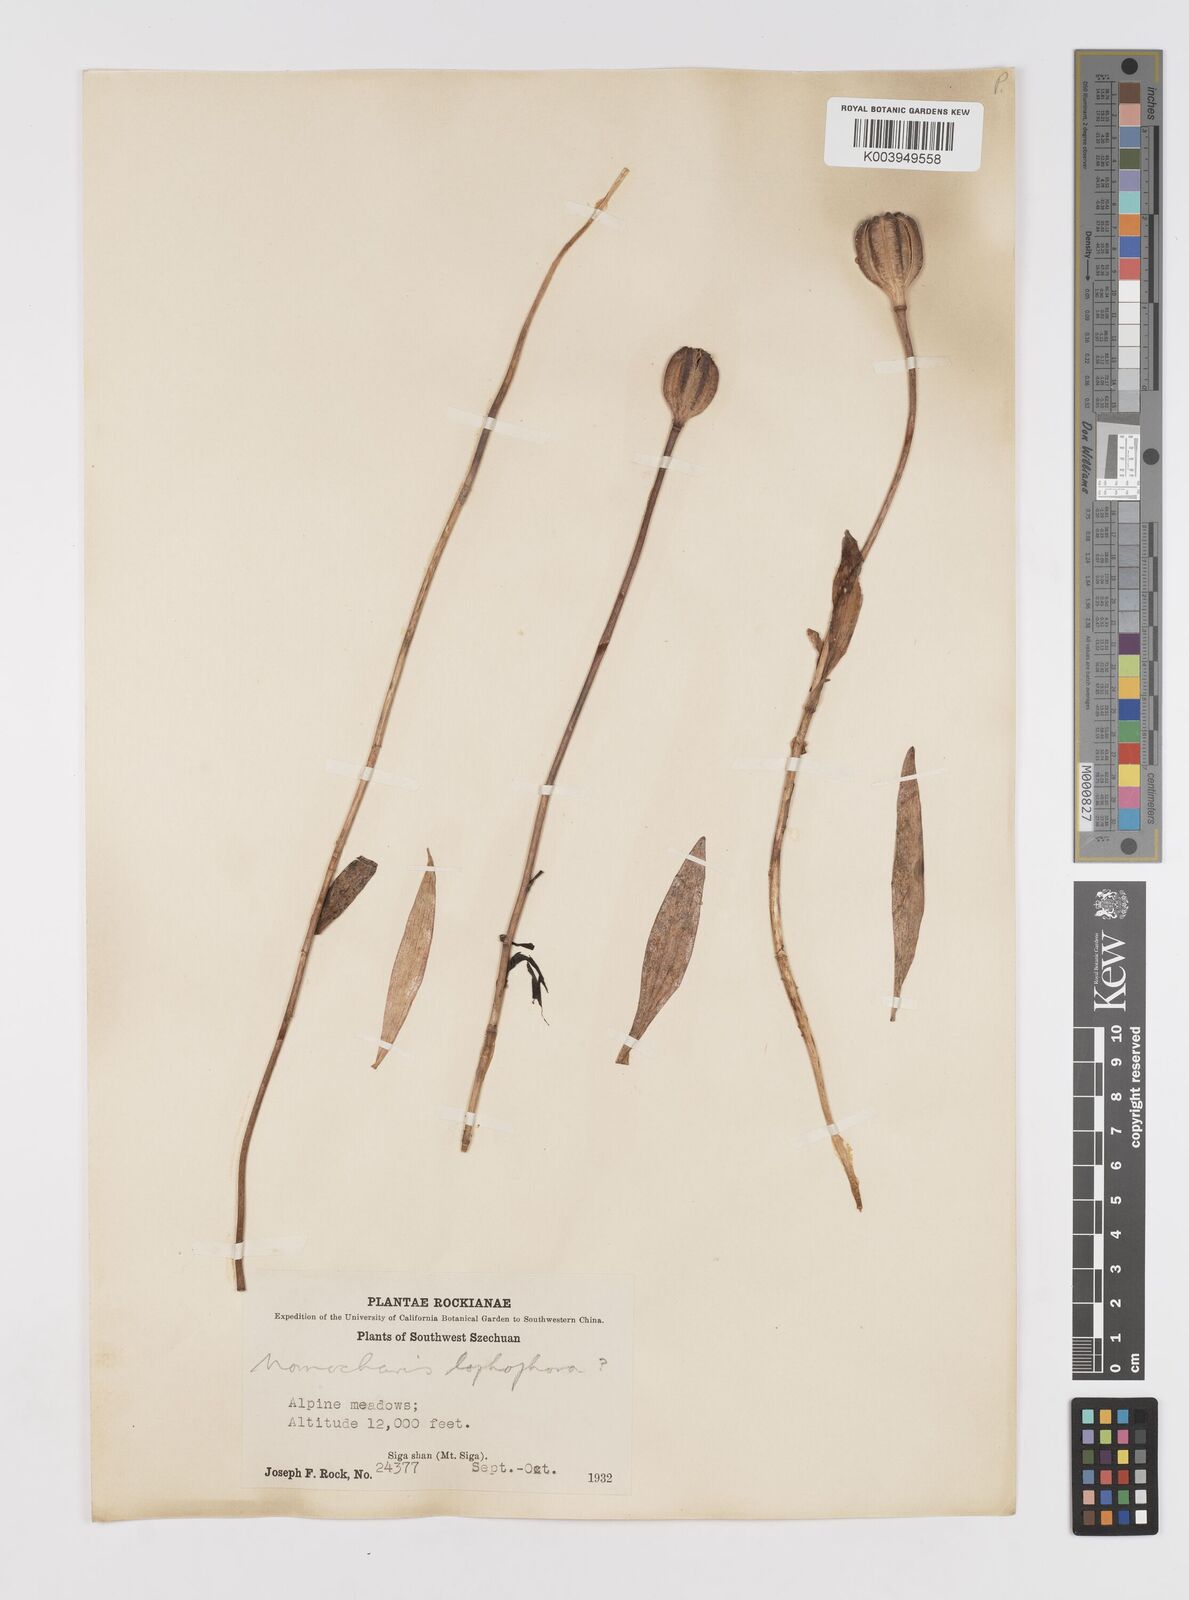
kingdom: Plantae
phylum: Tracheophyta
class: Liliopsida
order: Liliales
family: Liliaceae
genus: Lilium
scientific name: Lilium lophophorum
